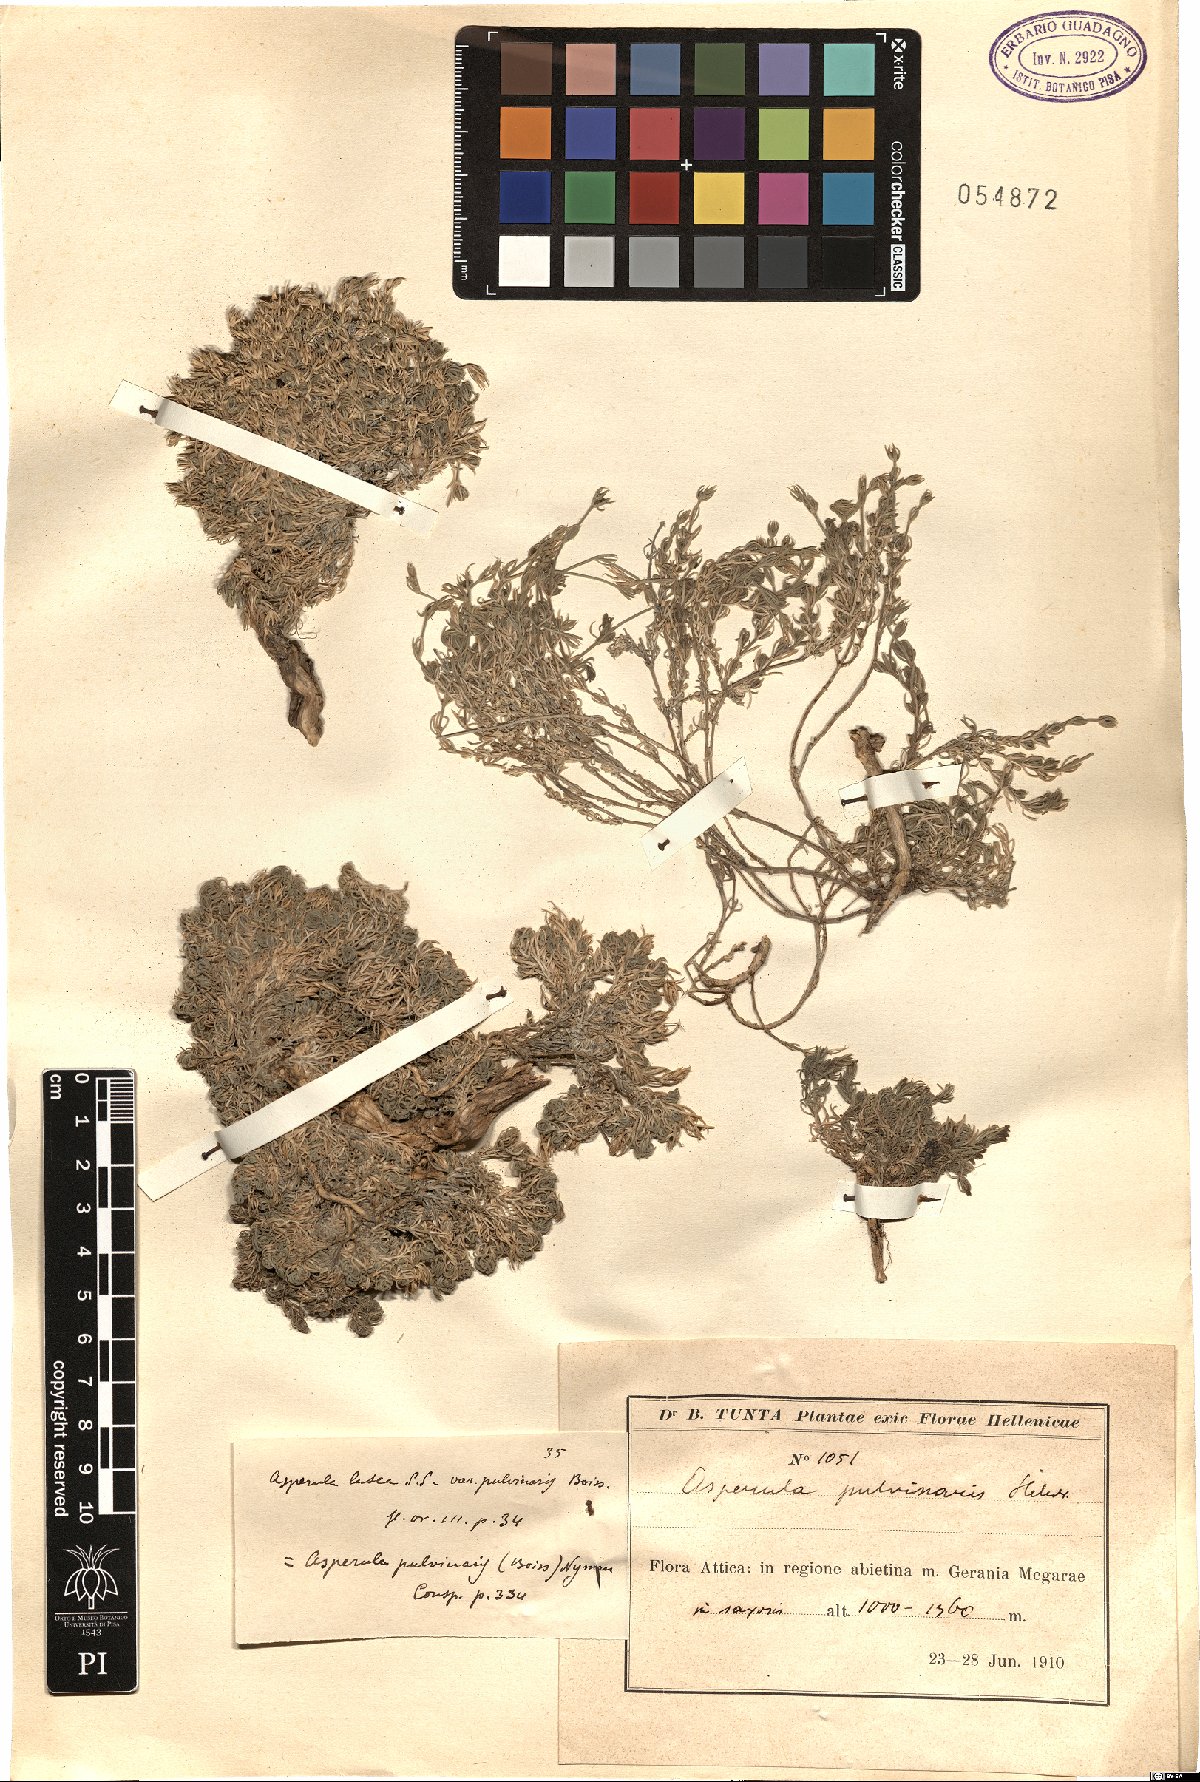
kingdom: Plantae
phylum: Tracheophyta
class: Magnoliopsida
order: Gentianales
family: Rubiaceae
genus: Cynanchica
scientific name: Cynanchica pulvinaris
